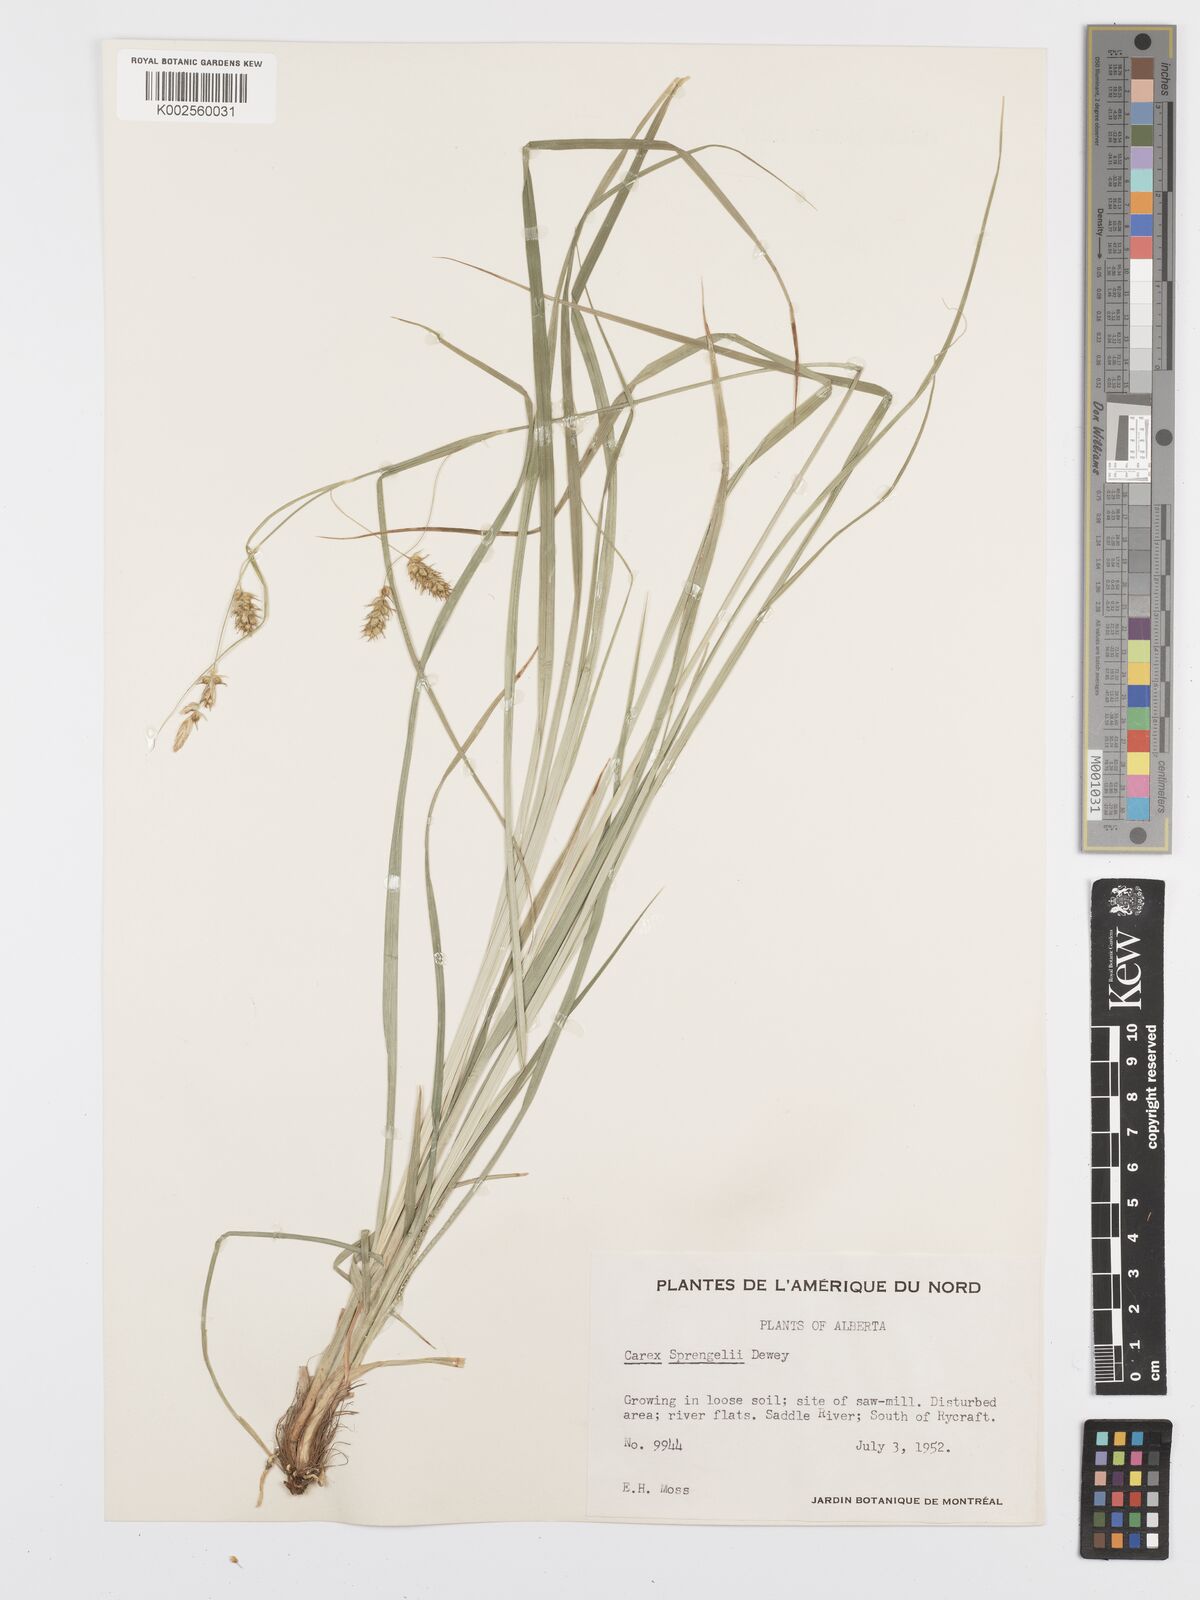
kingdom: Plantae
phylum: Tracheophyta
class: Liliopsida
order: Poales
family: Cyperaceae
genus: Carex
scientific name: Carex sprengelii
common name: Long-beaked sedge
